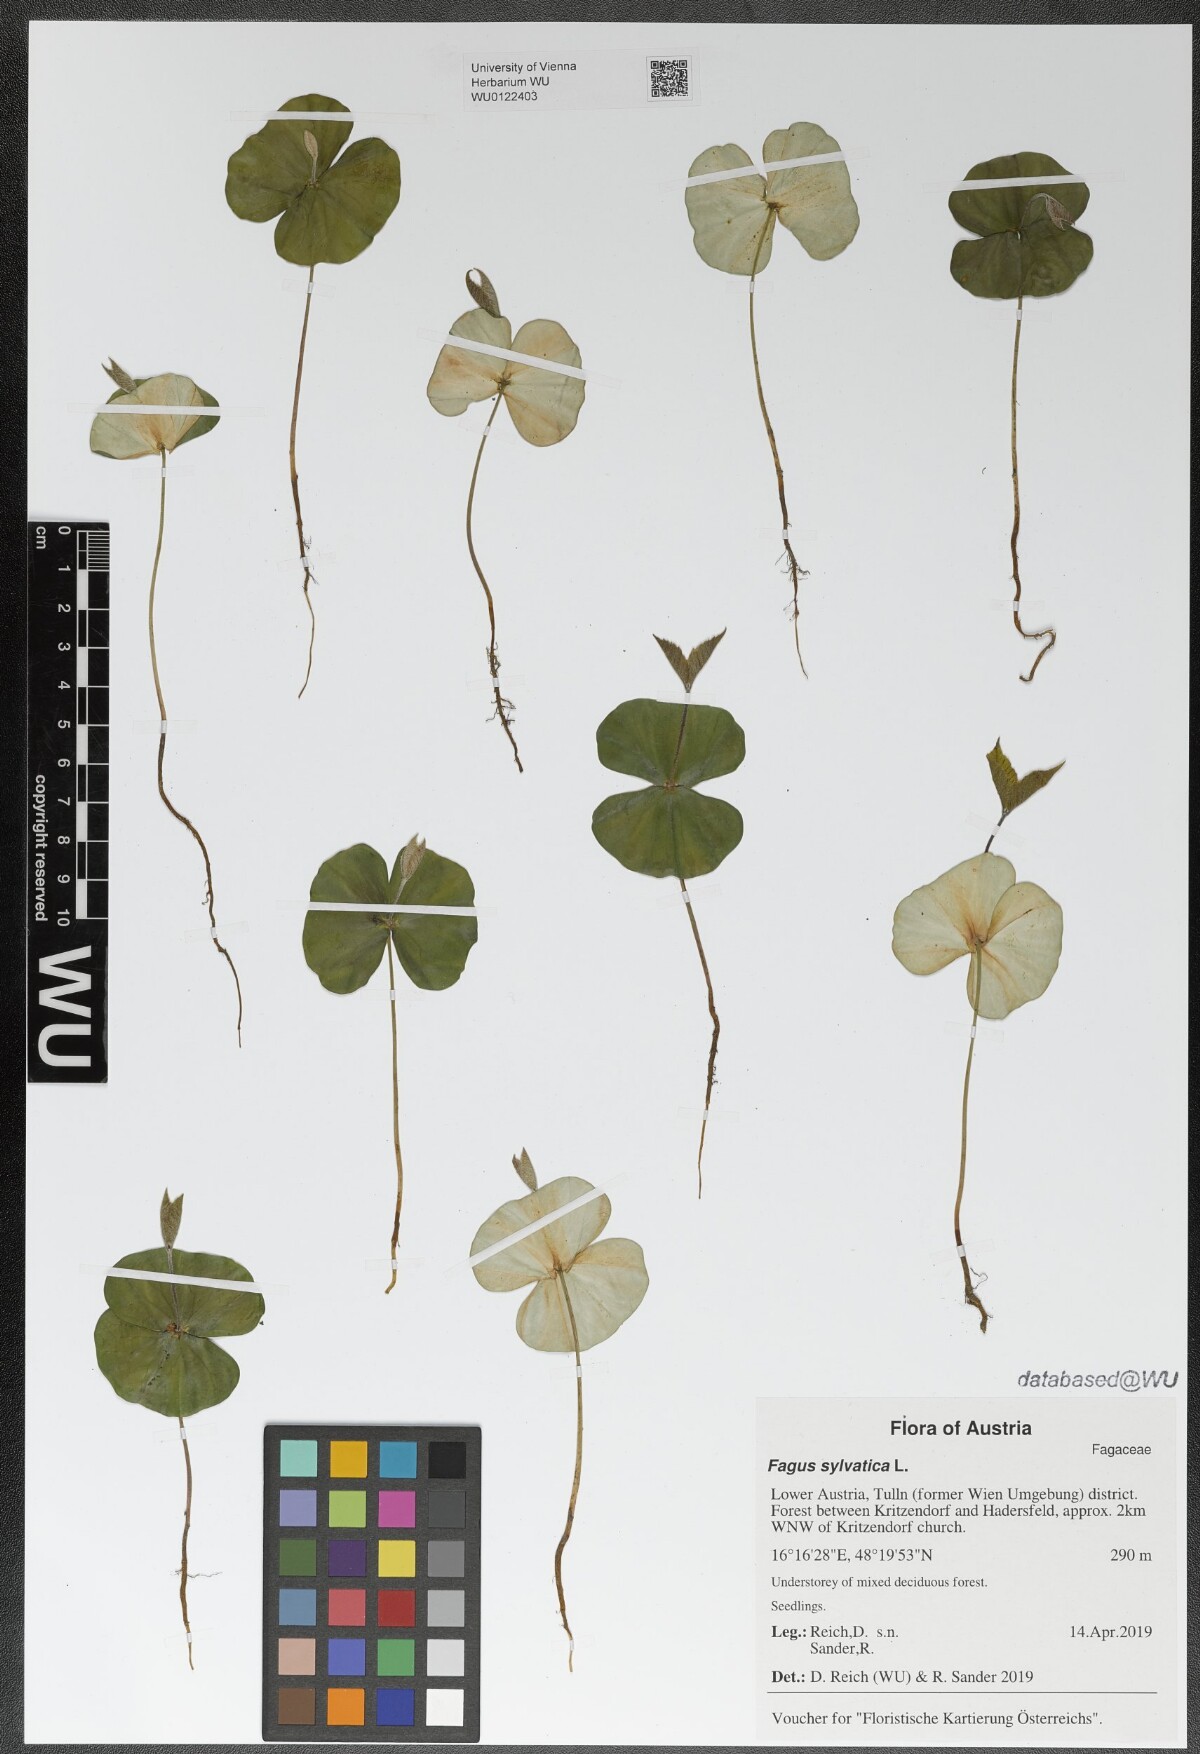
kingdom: Plantae
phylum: Tracheophyta
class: Magnoliopsida
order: Fagales
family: Fagaceae
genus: Fagus
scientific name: Fagus sylvatica
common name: Beech
